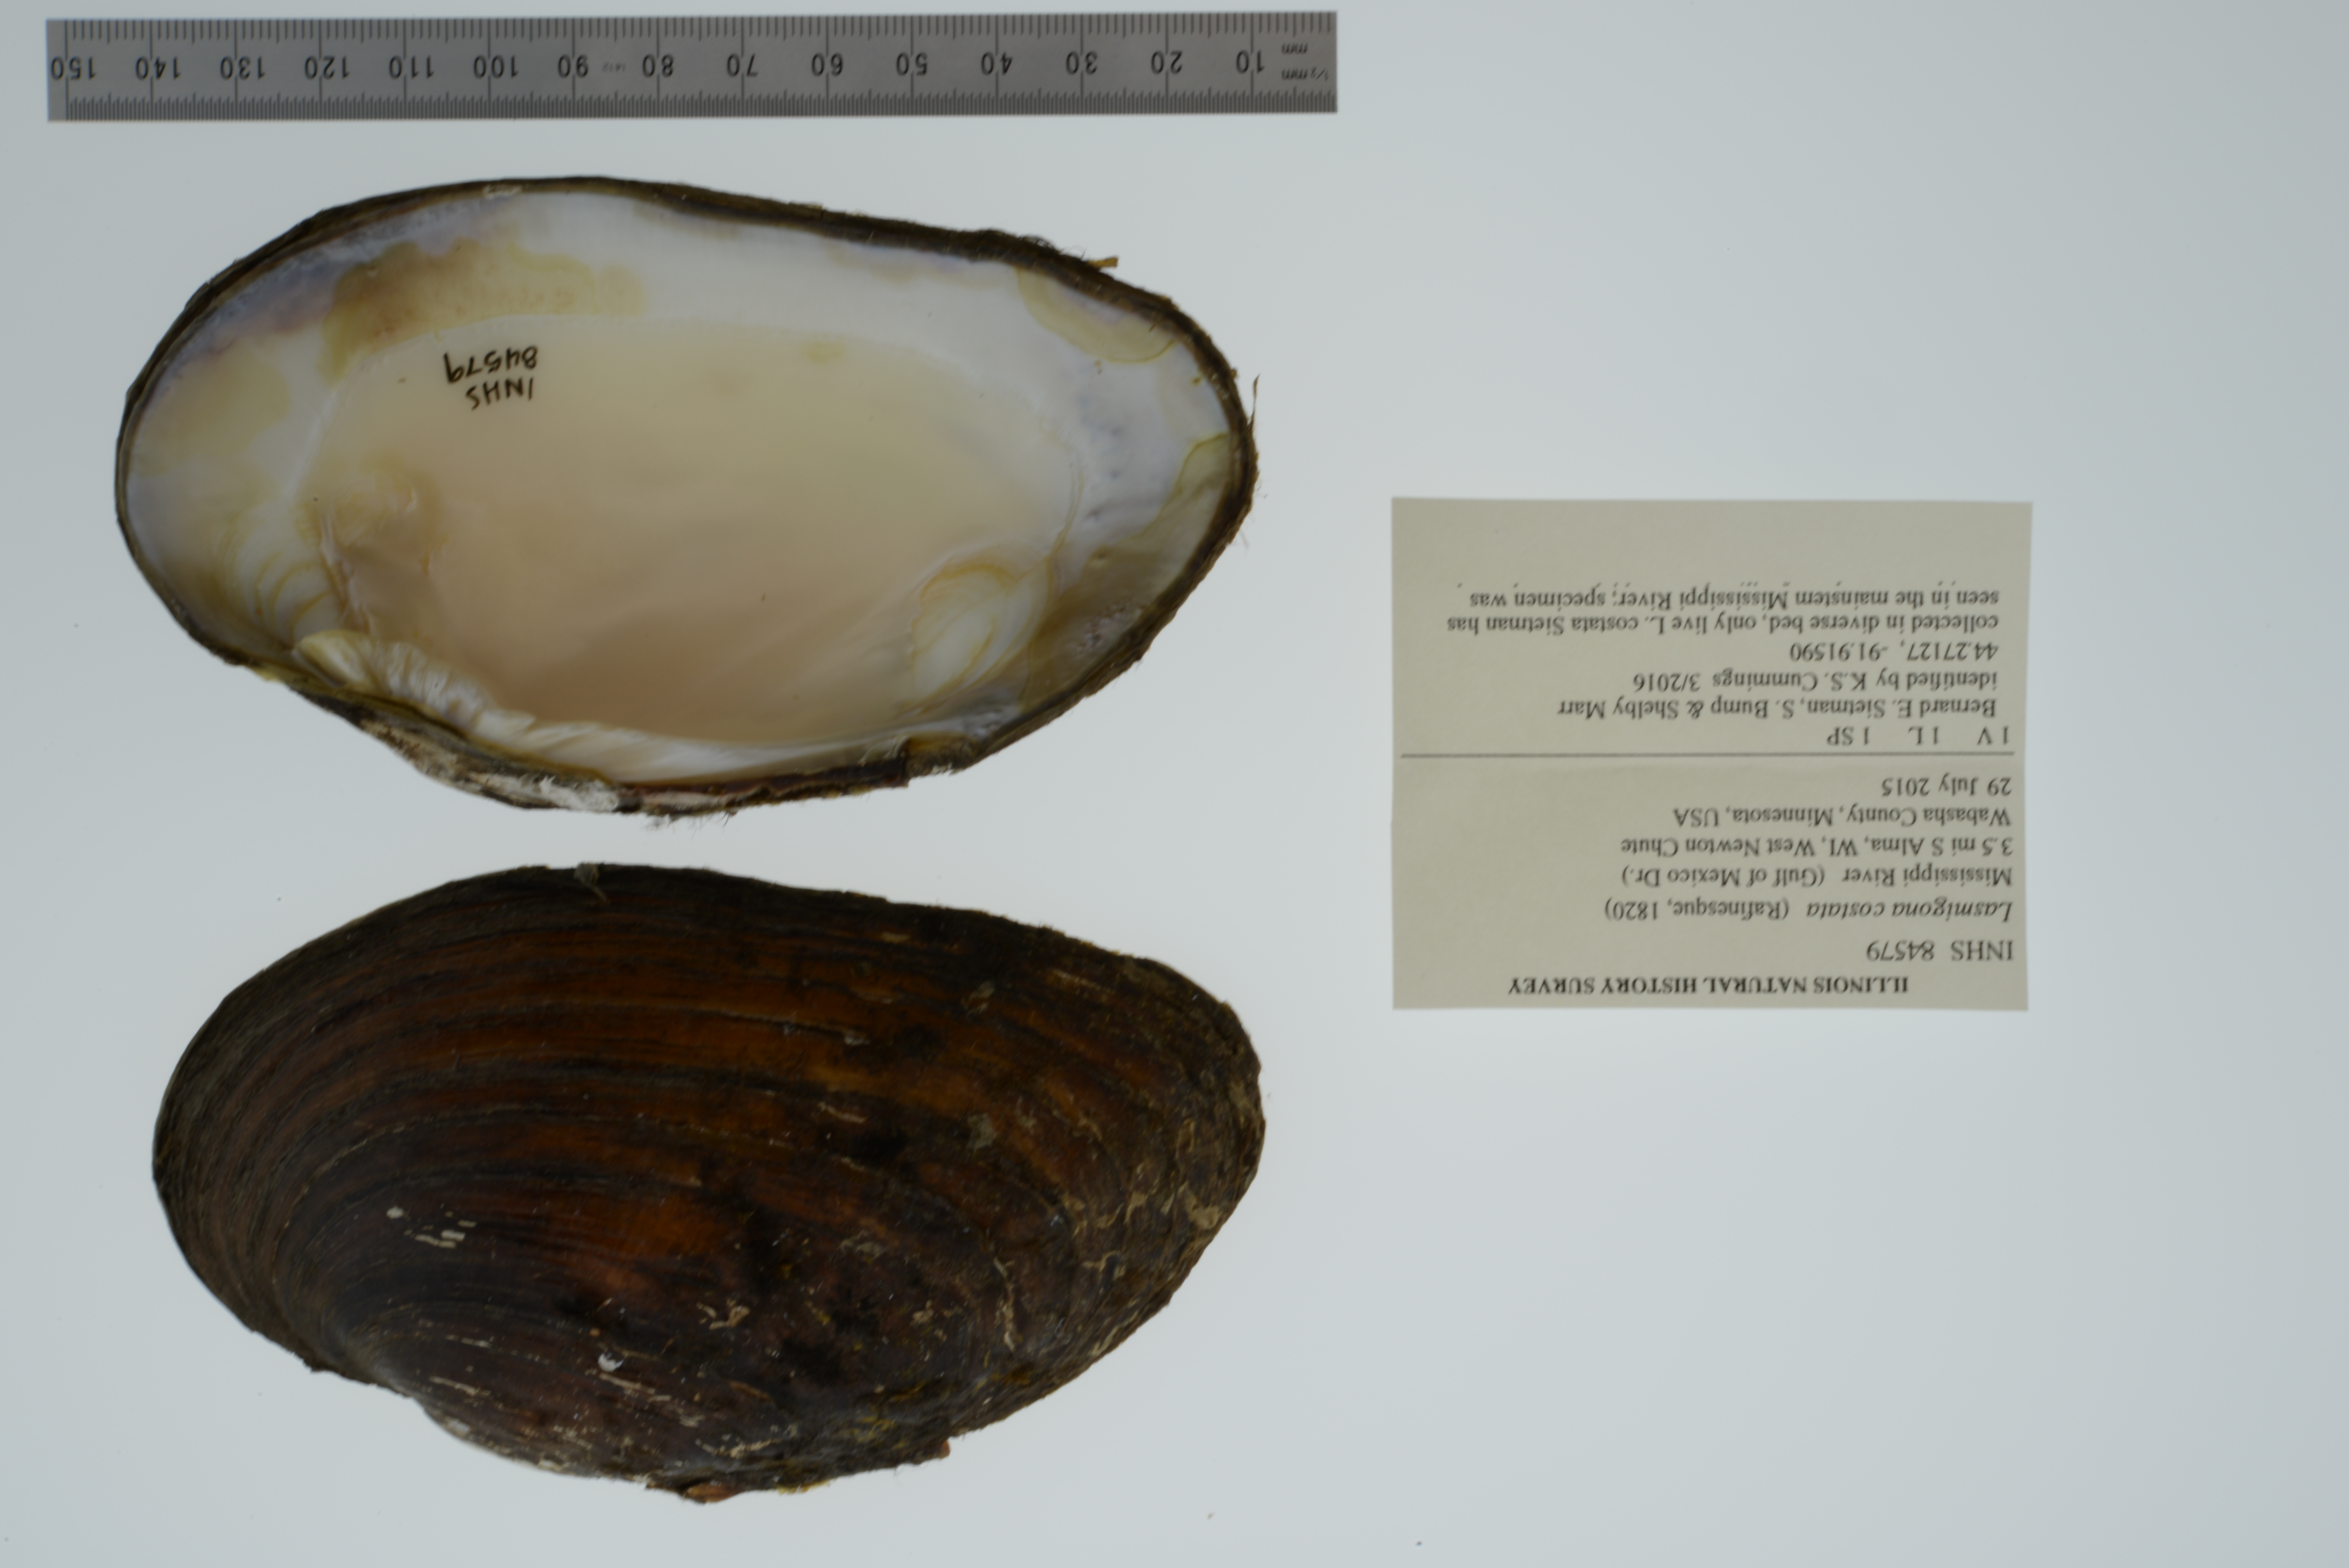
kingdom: Animalia
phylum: Mollusca
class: Bivalvia
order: Unionida
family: Unionidae
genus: Lasmigona
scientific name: Lasmigona costata
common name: Flutedshell
